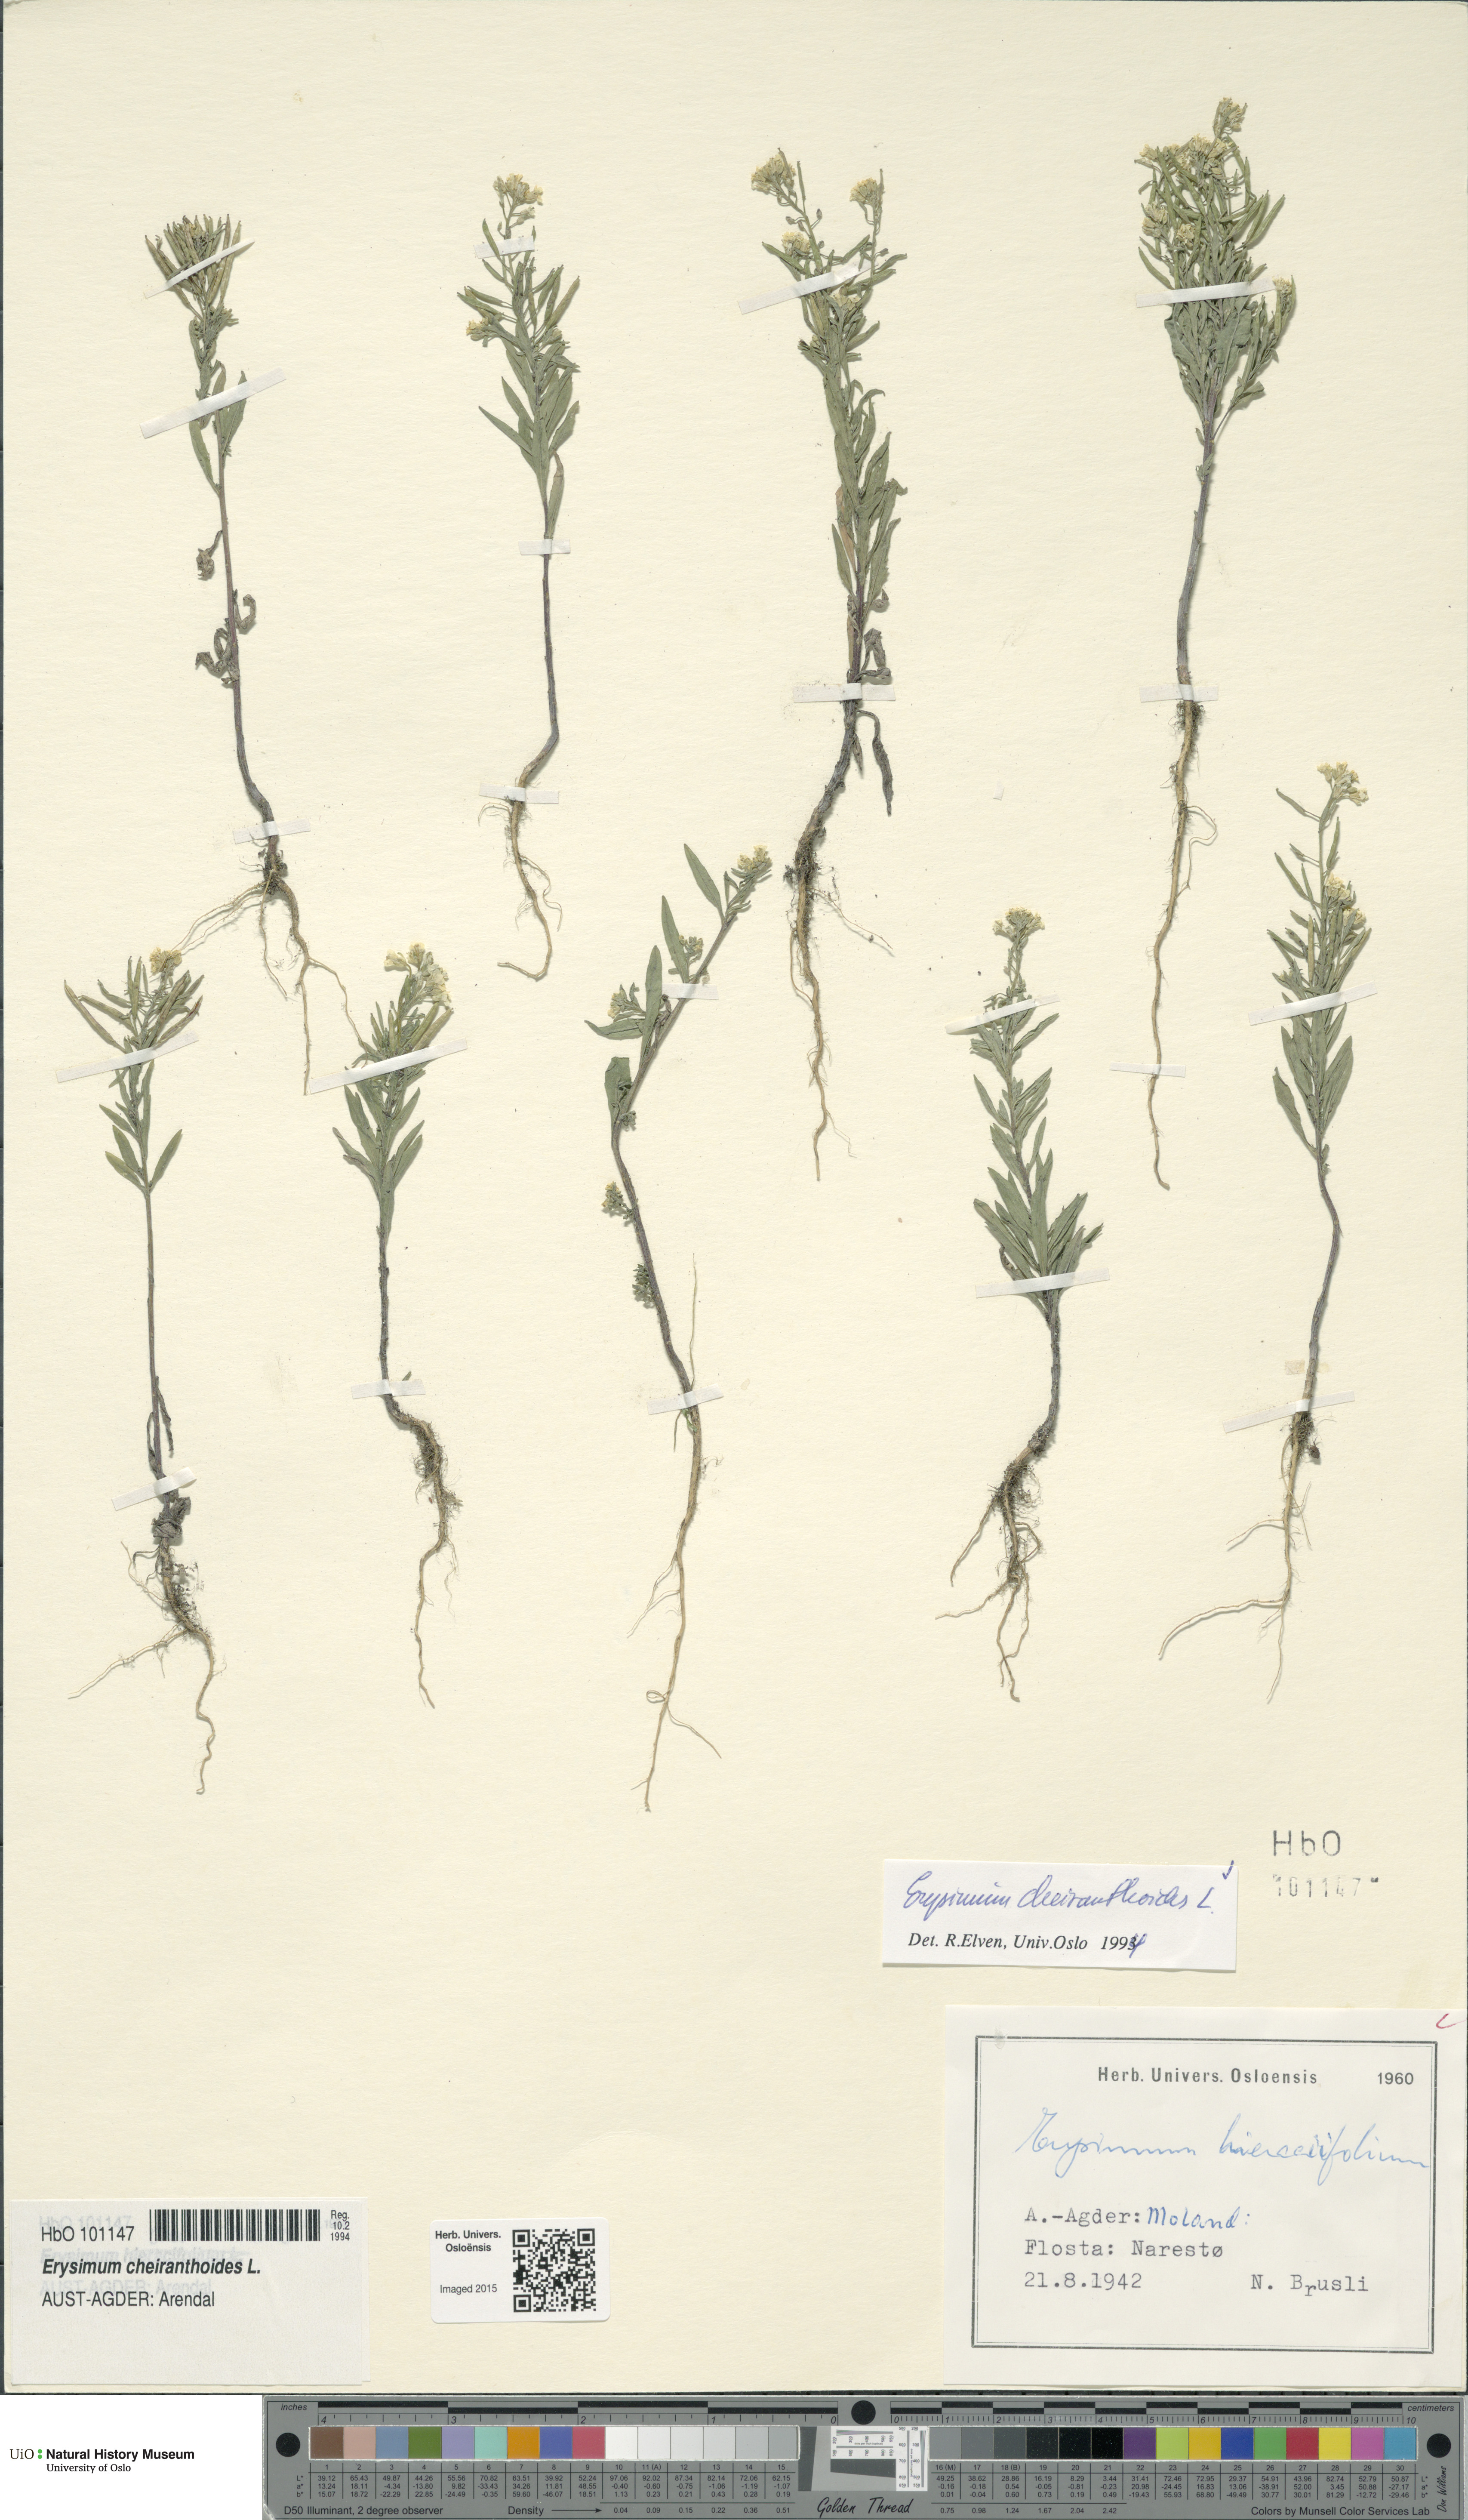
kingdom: Plantae
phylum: Tracheophyta
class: Magnoliopsida
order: Brassicales
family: Brassicaceae
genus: Erysimum
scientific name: Erysimum cheiranthoides
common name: Treacle mustard
